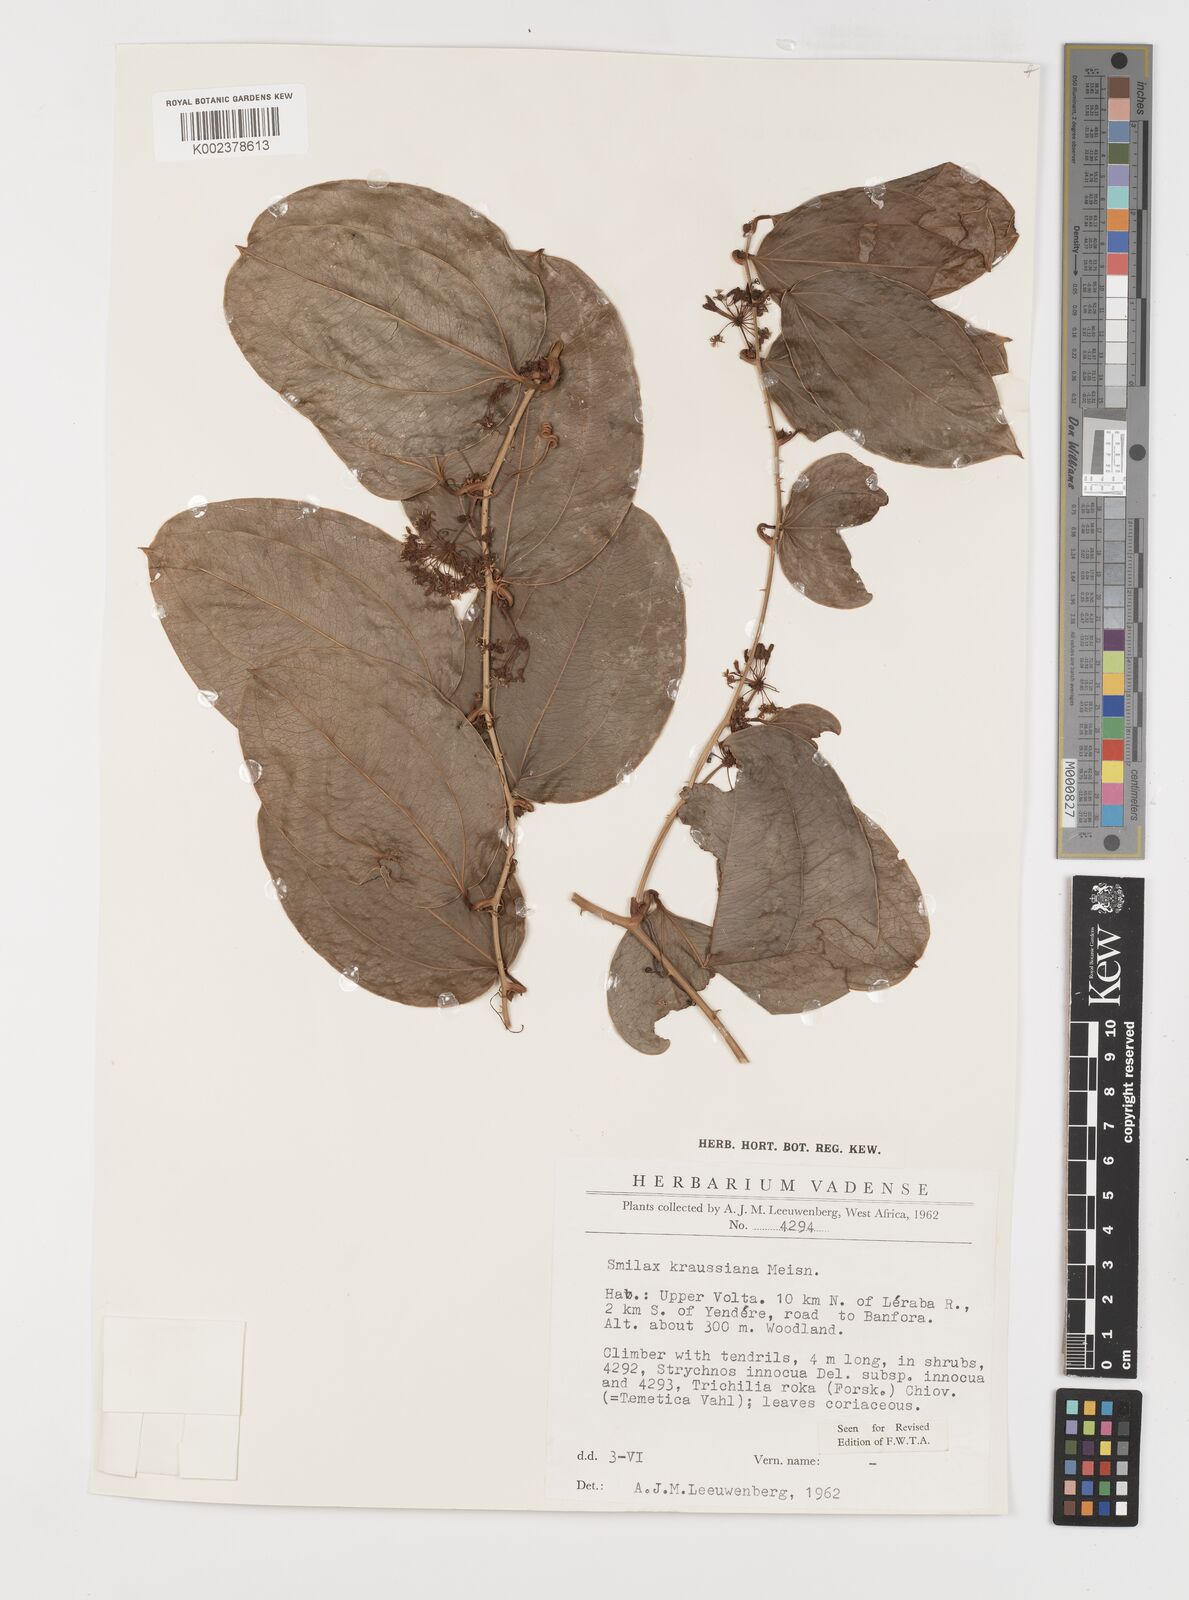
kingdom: Plantae
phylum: Tracheophyta
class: Liliopsida
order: Liliales
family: Smilacaceae
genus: Smilax
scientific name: Smilax anceps
